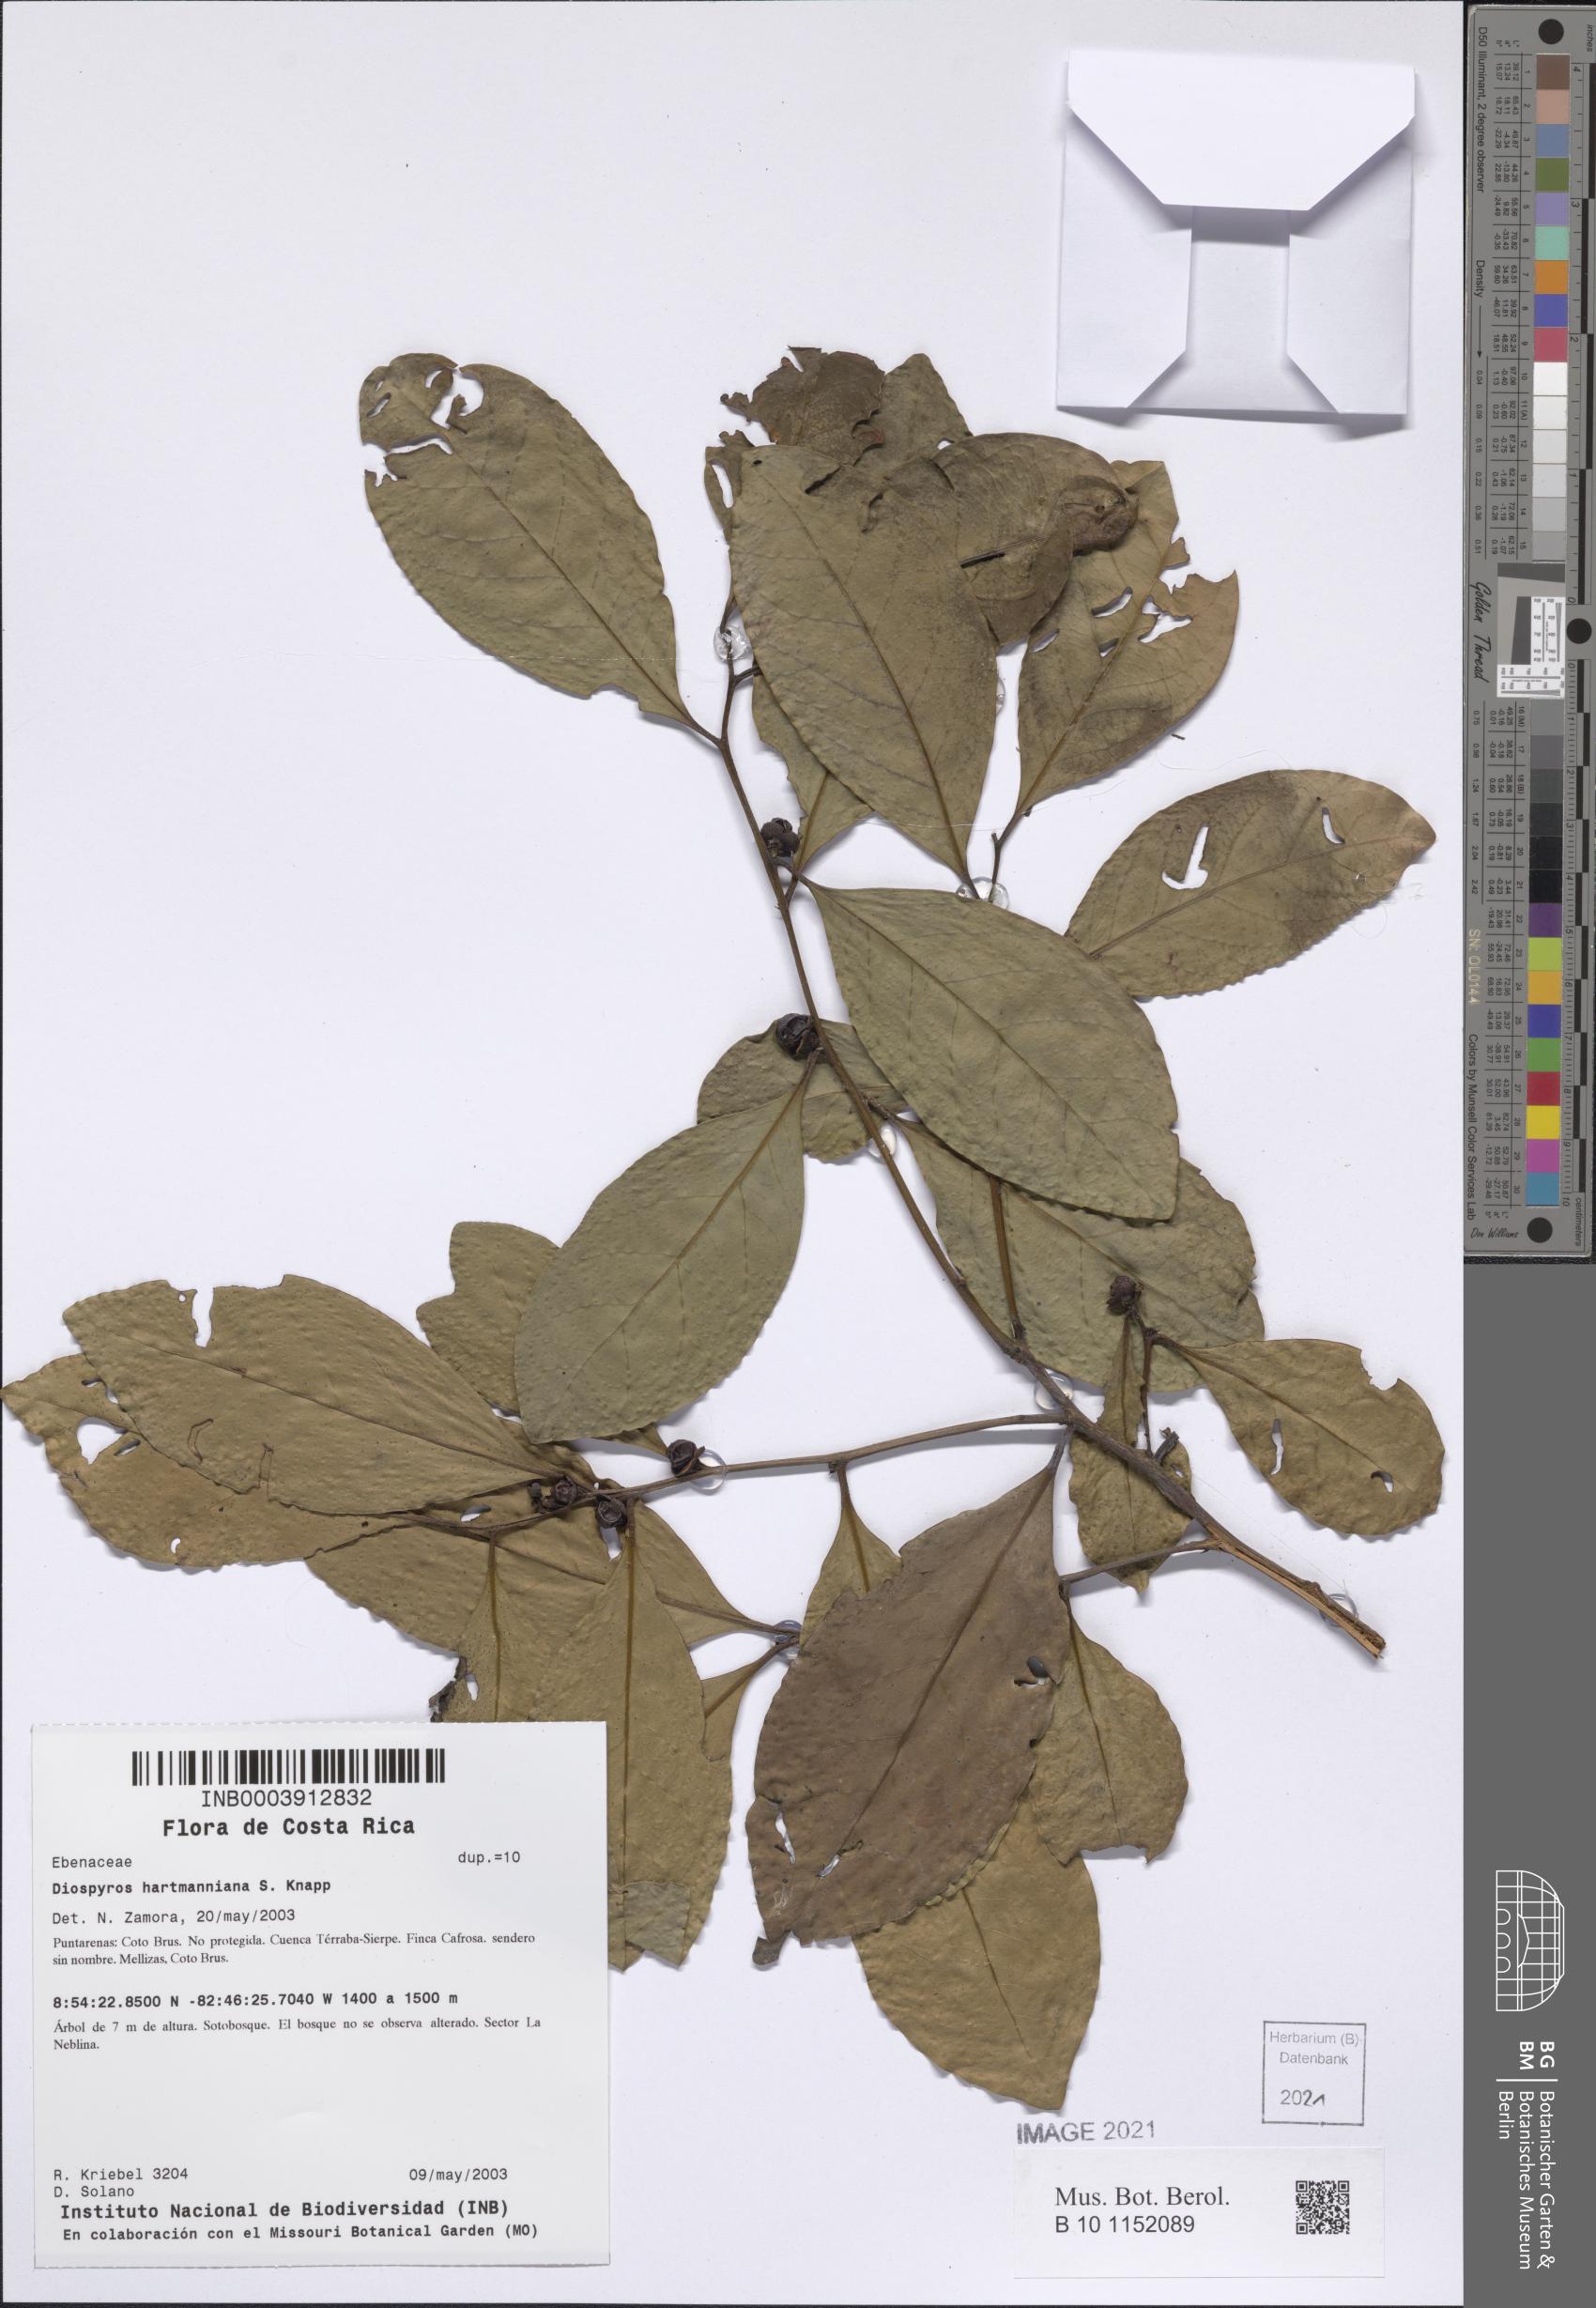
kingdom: Plantae
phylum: Tracheophyta
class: Magnoliopsida
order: Ericales
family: Ebenaceae
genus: Diospyros
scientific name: Diospyros juruensis
